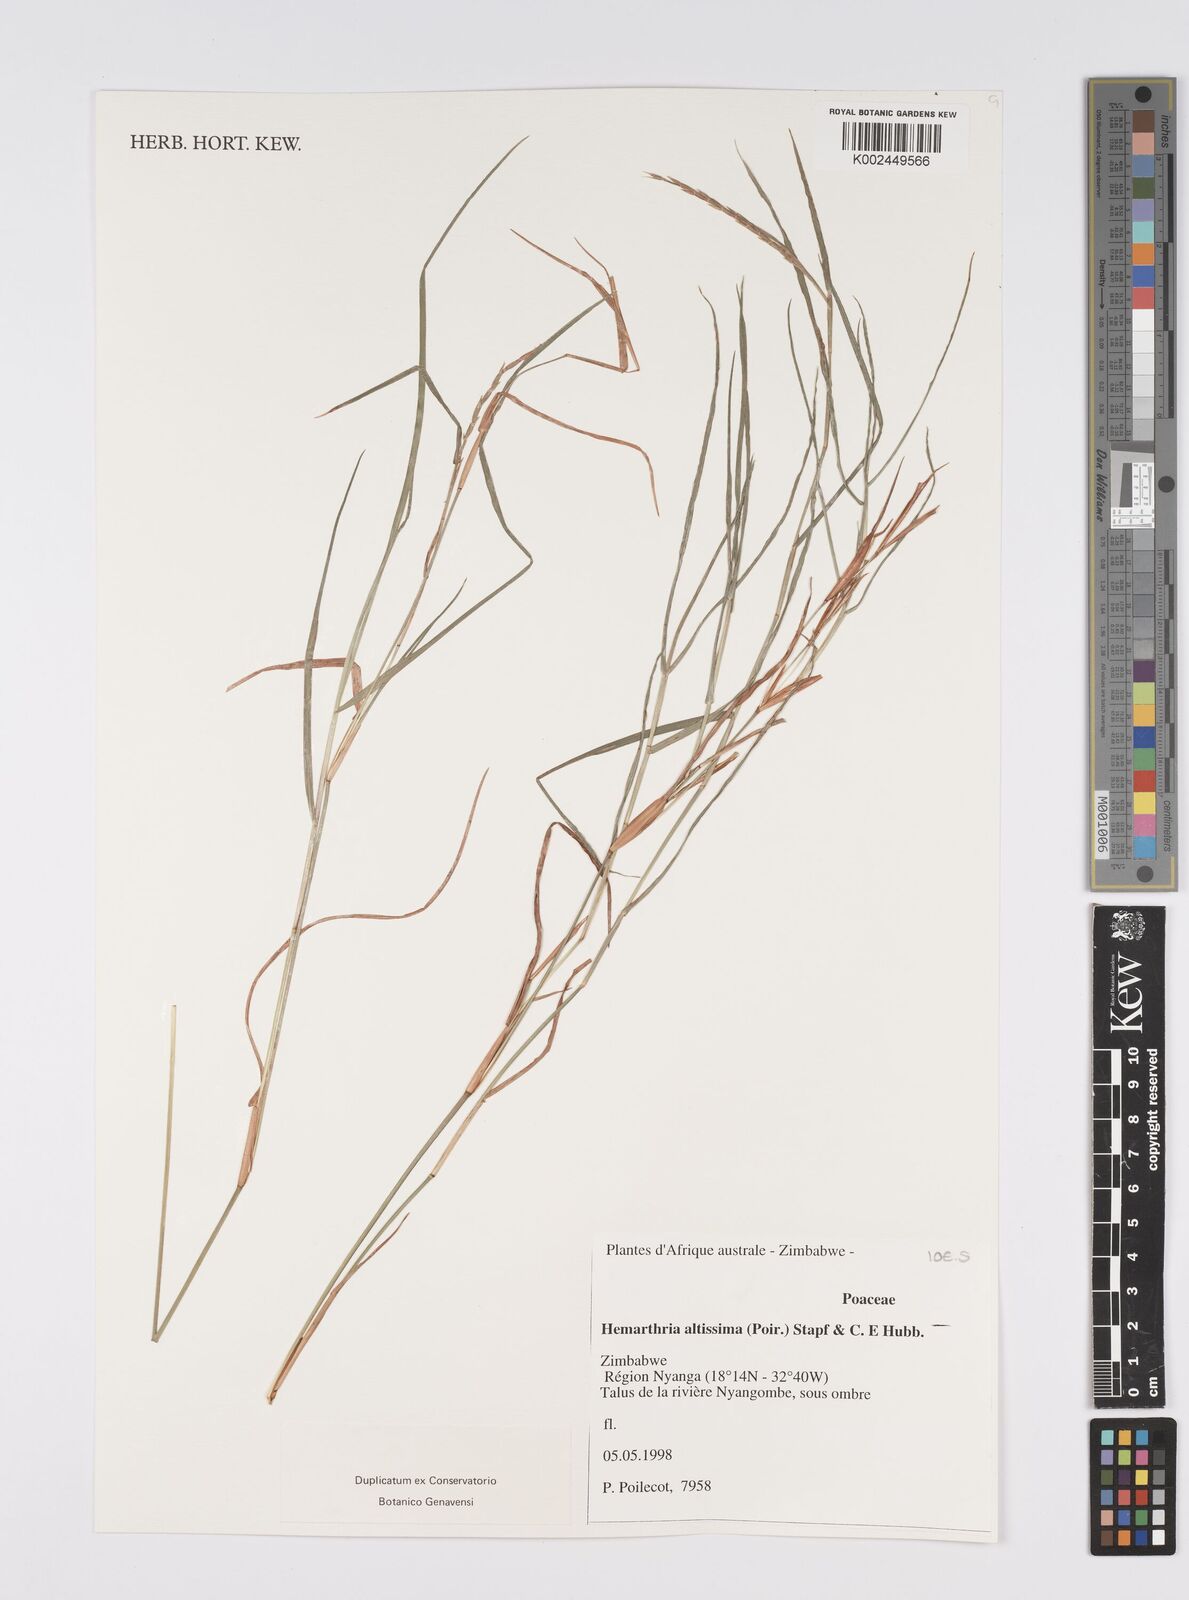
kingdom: Plantae
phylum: Tracheophyta
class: Liliopsida
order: Poales
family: Poaceae
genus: Hemarthria
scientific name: Hemarthria altissima
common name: African jointgrass
